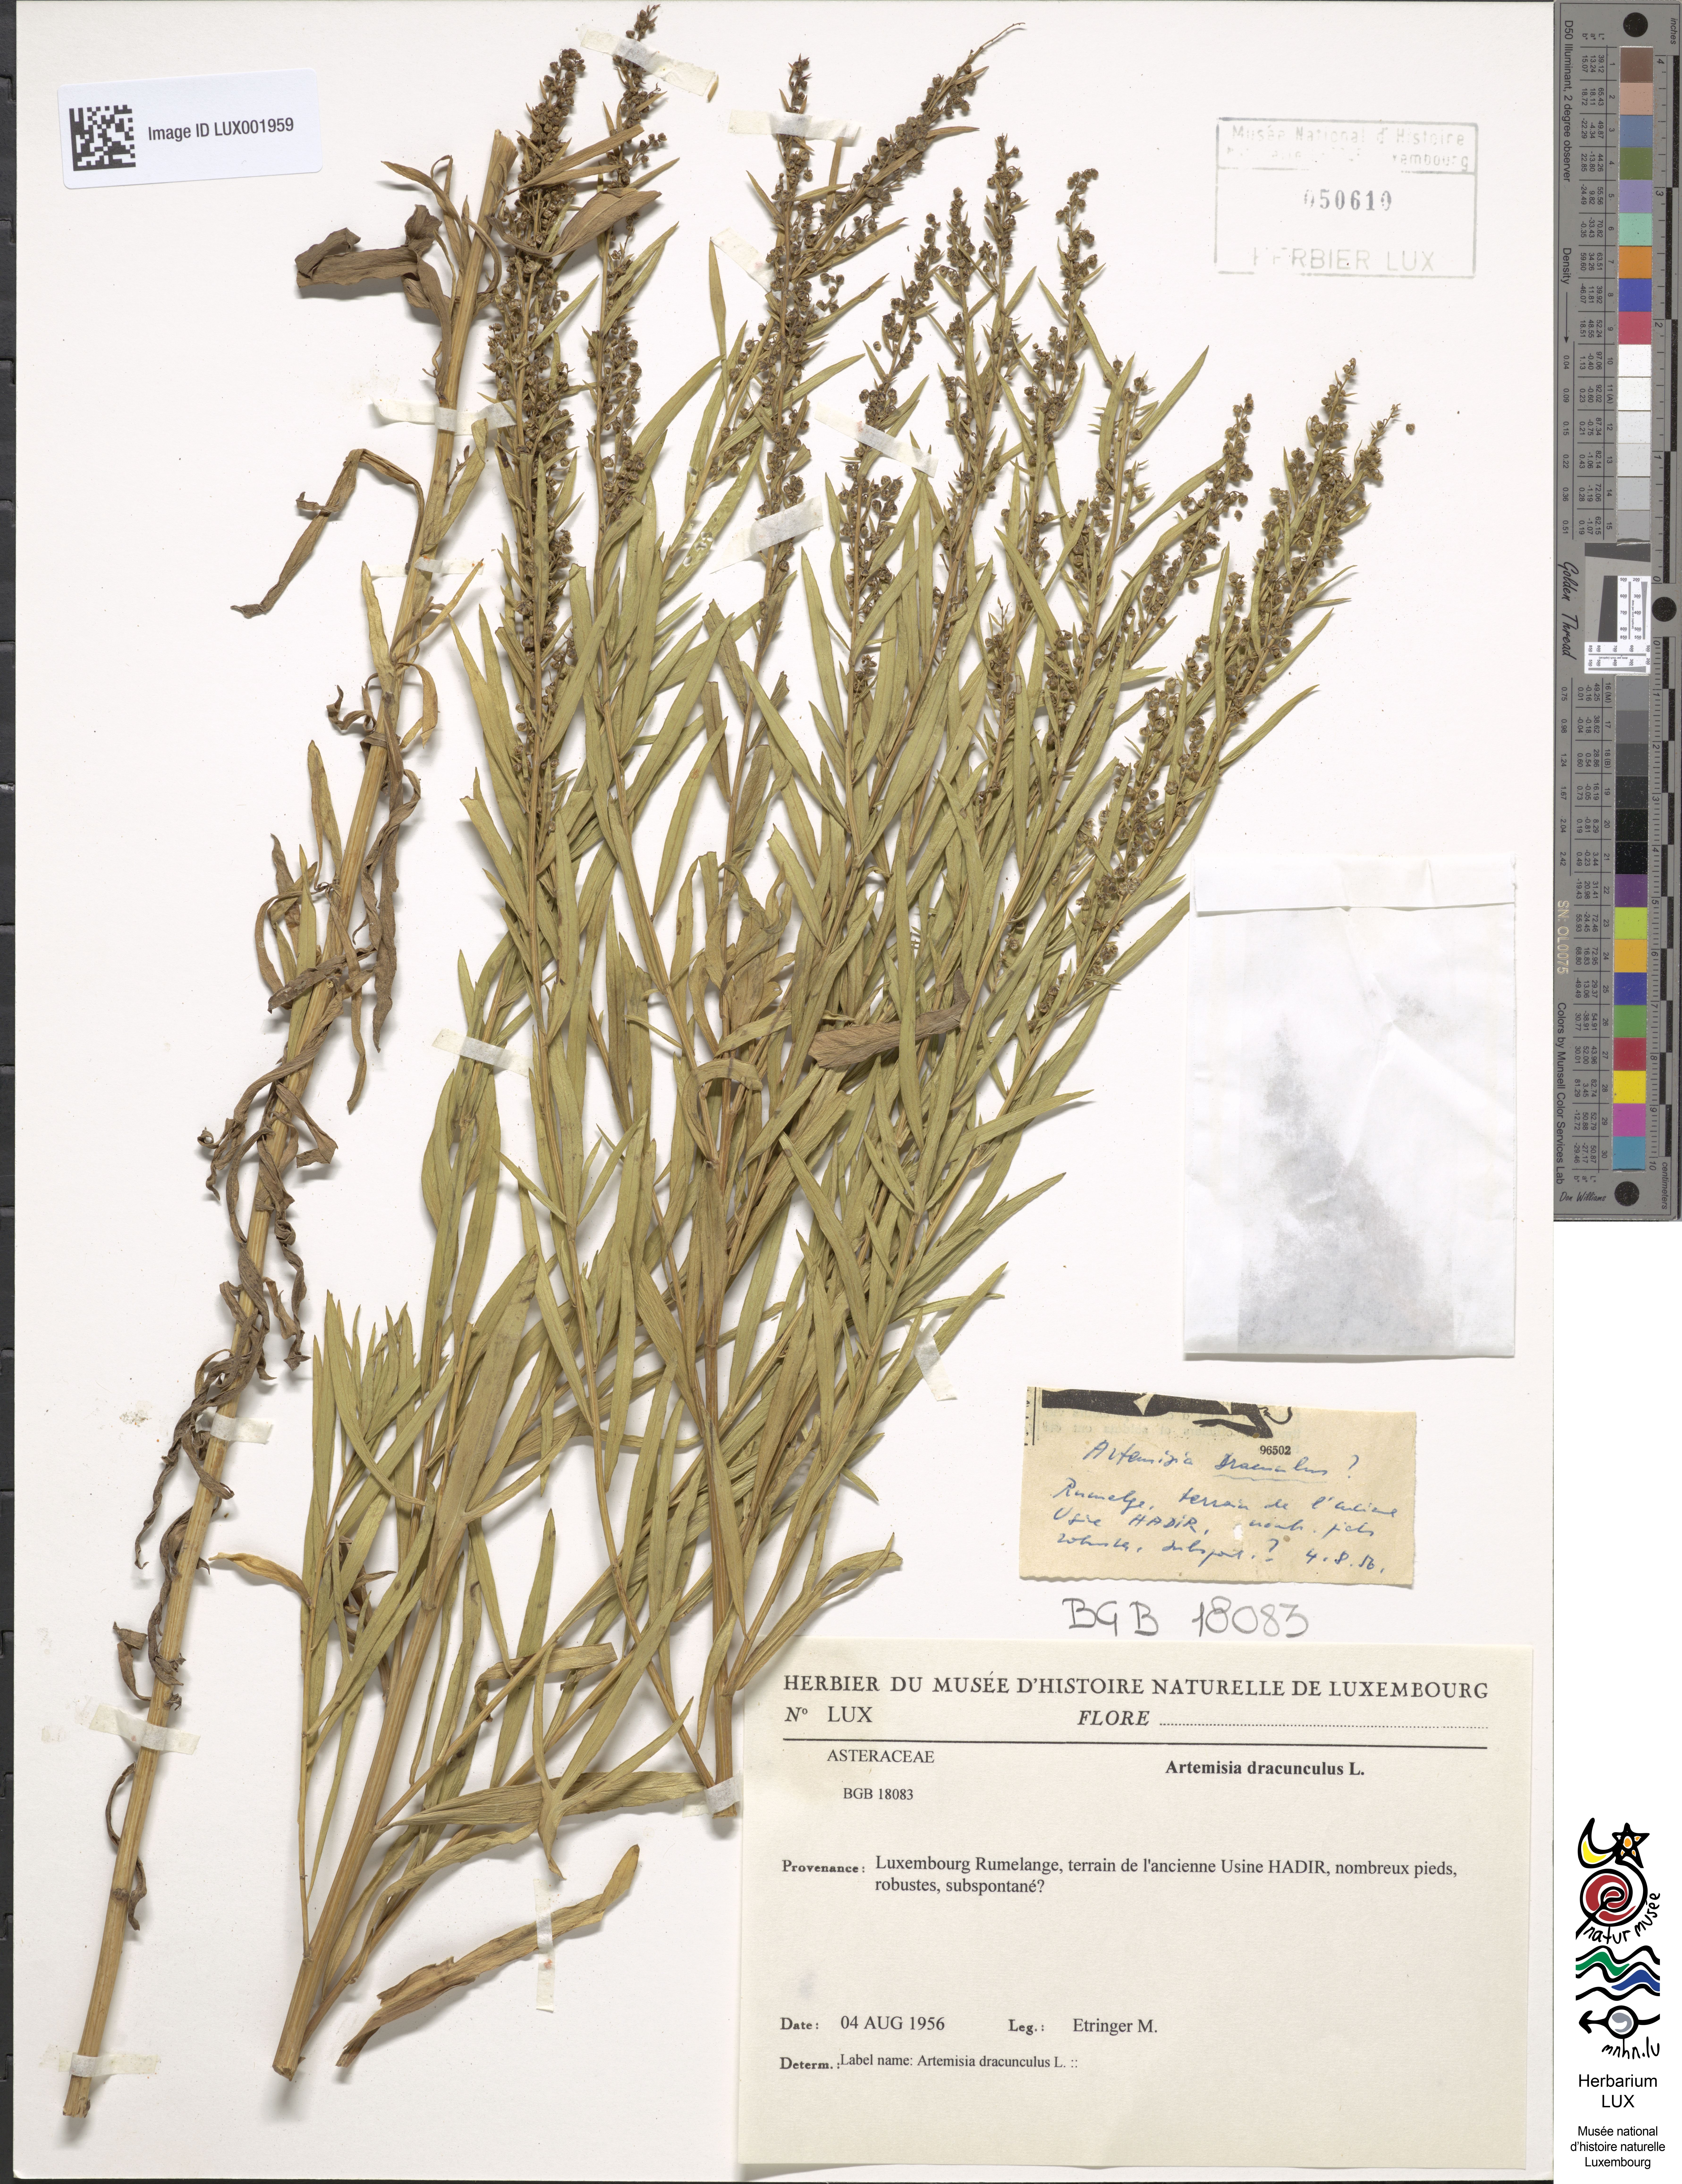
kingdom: Plantae
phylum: Tracheophyta
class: Magnoliopsida
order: Asterales
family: Asteraceae
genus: Artemisia
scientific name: Artemisia dracunculus
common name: Tarragon
